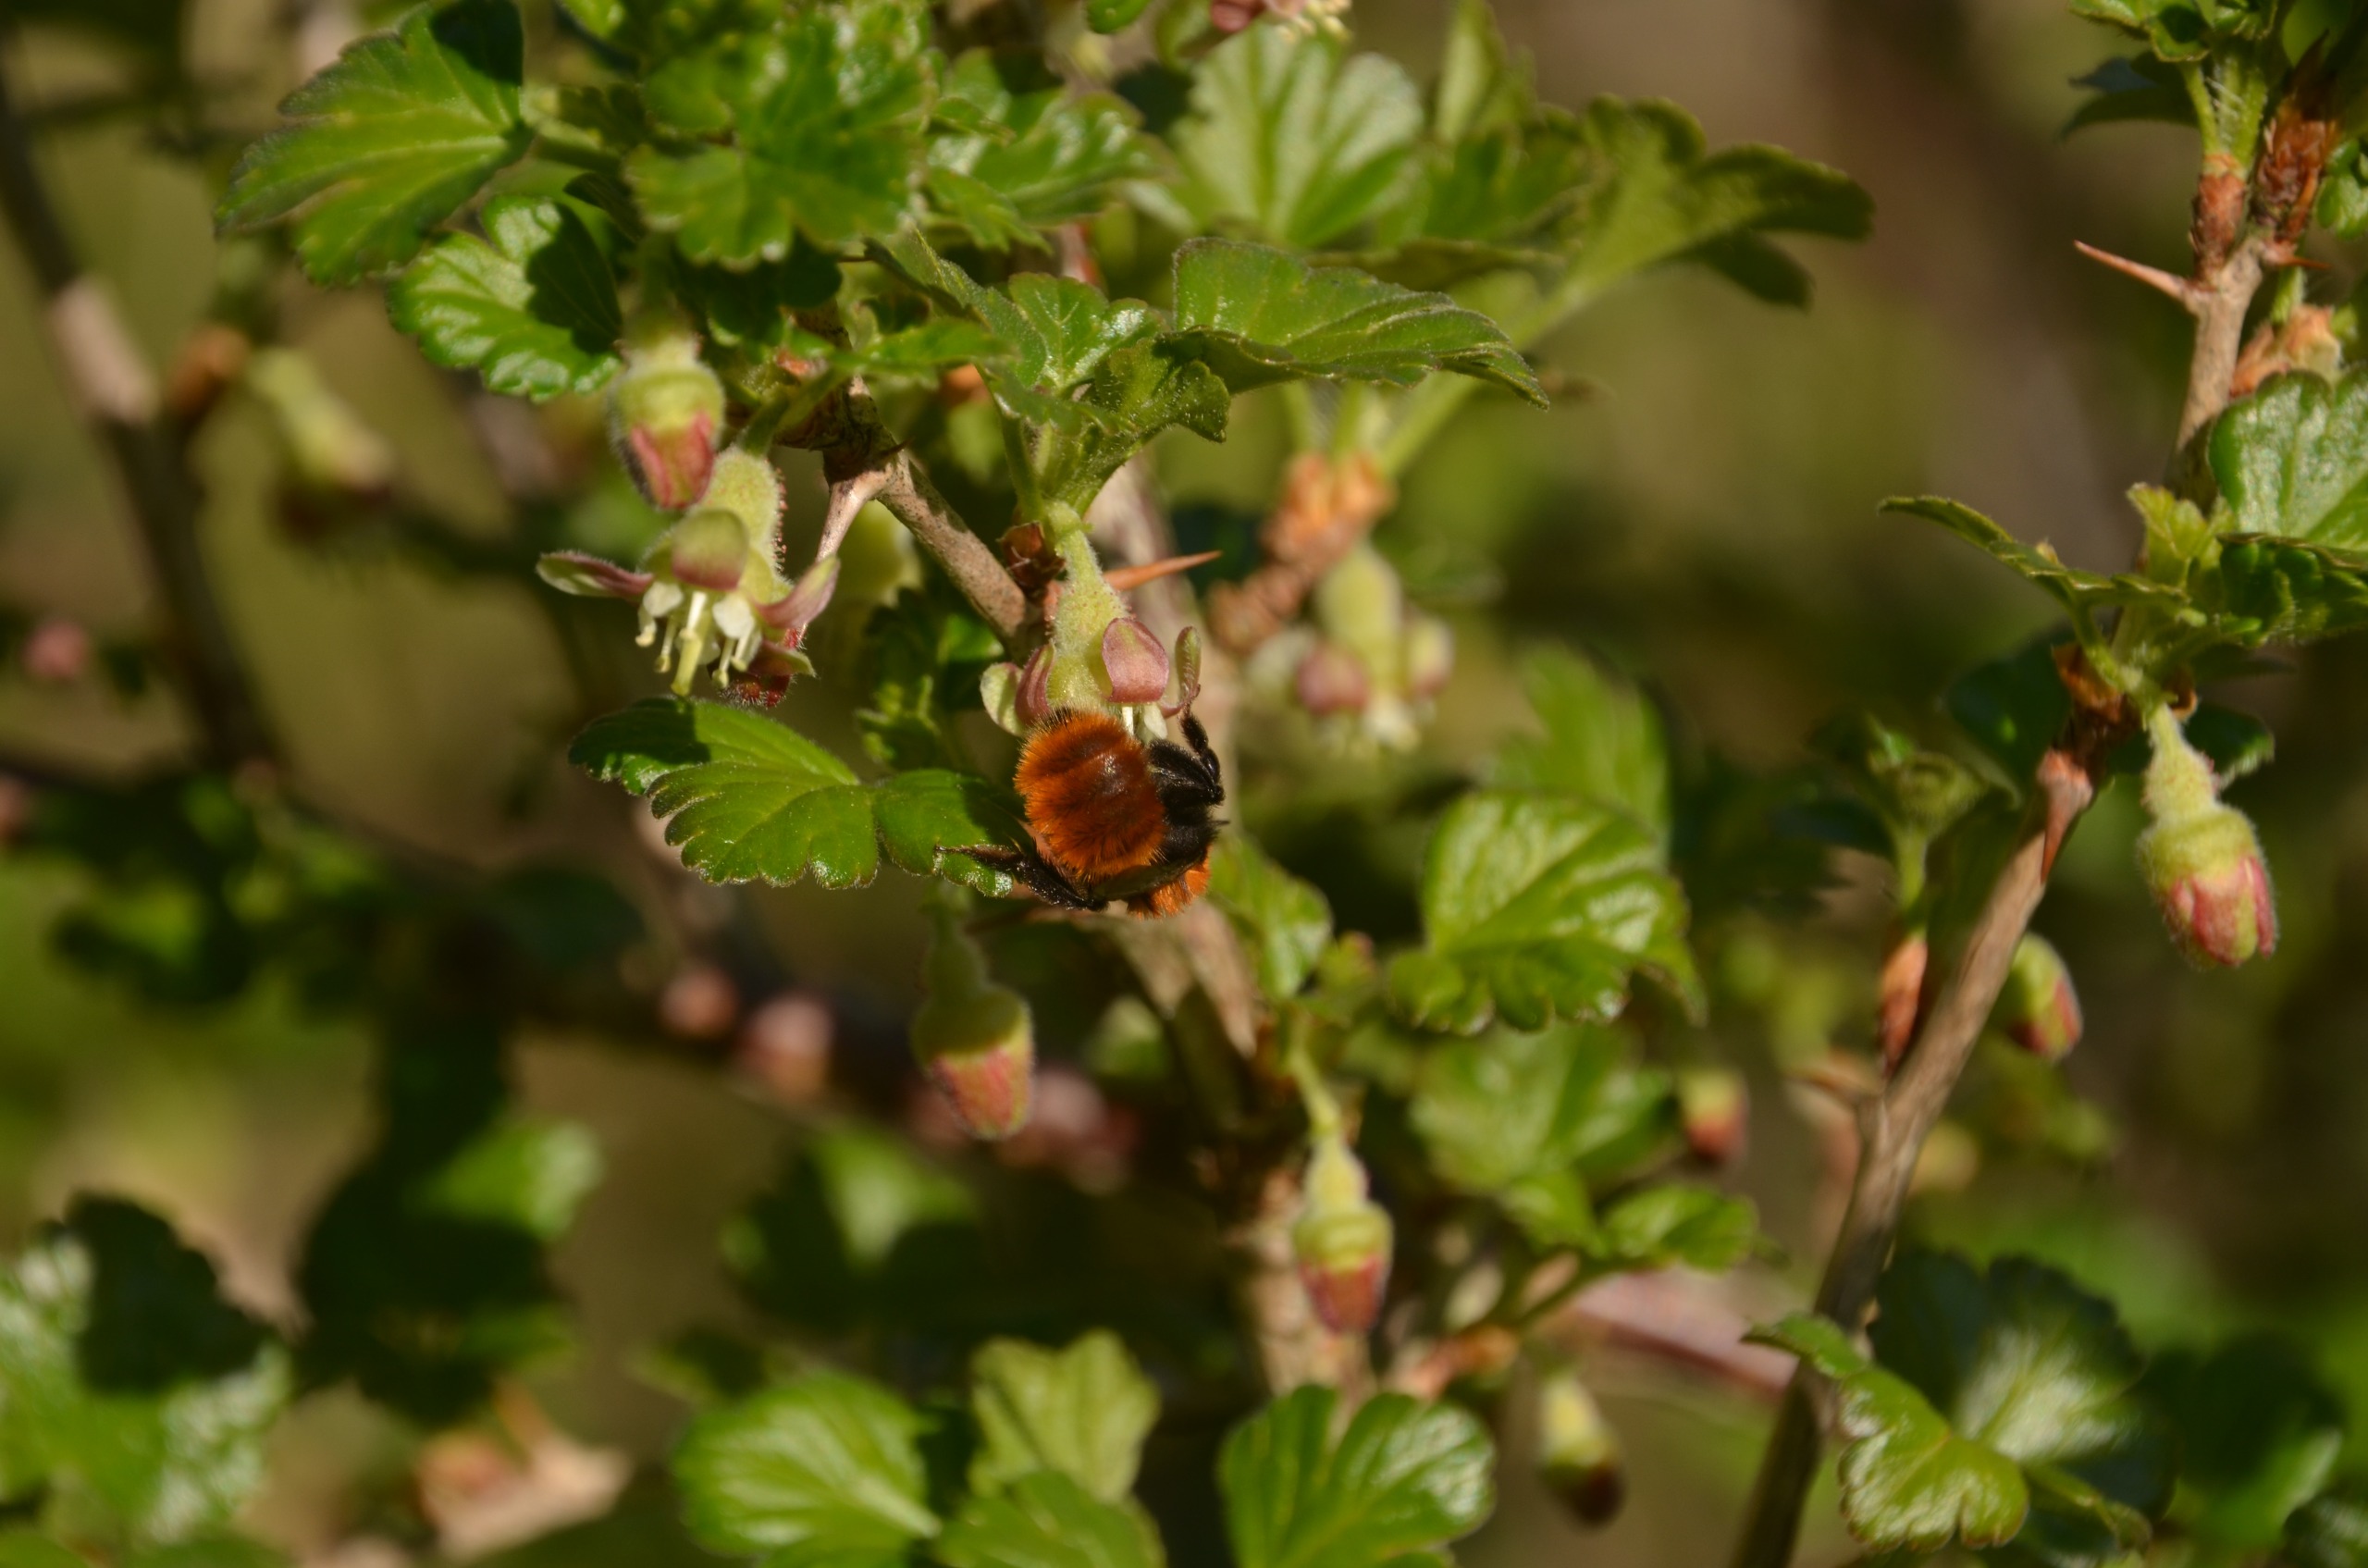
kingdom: Animalia
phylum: Arthropoda
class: Insecta
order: Hymenoptera
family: Andrenidae
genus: Andrena
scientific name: Andrena fulva
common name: Rødpelset jordbi
